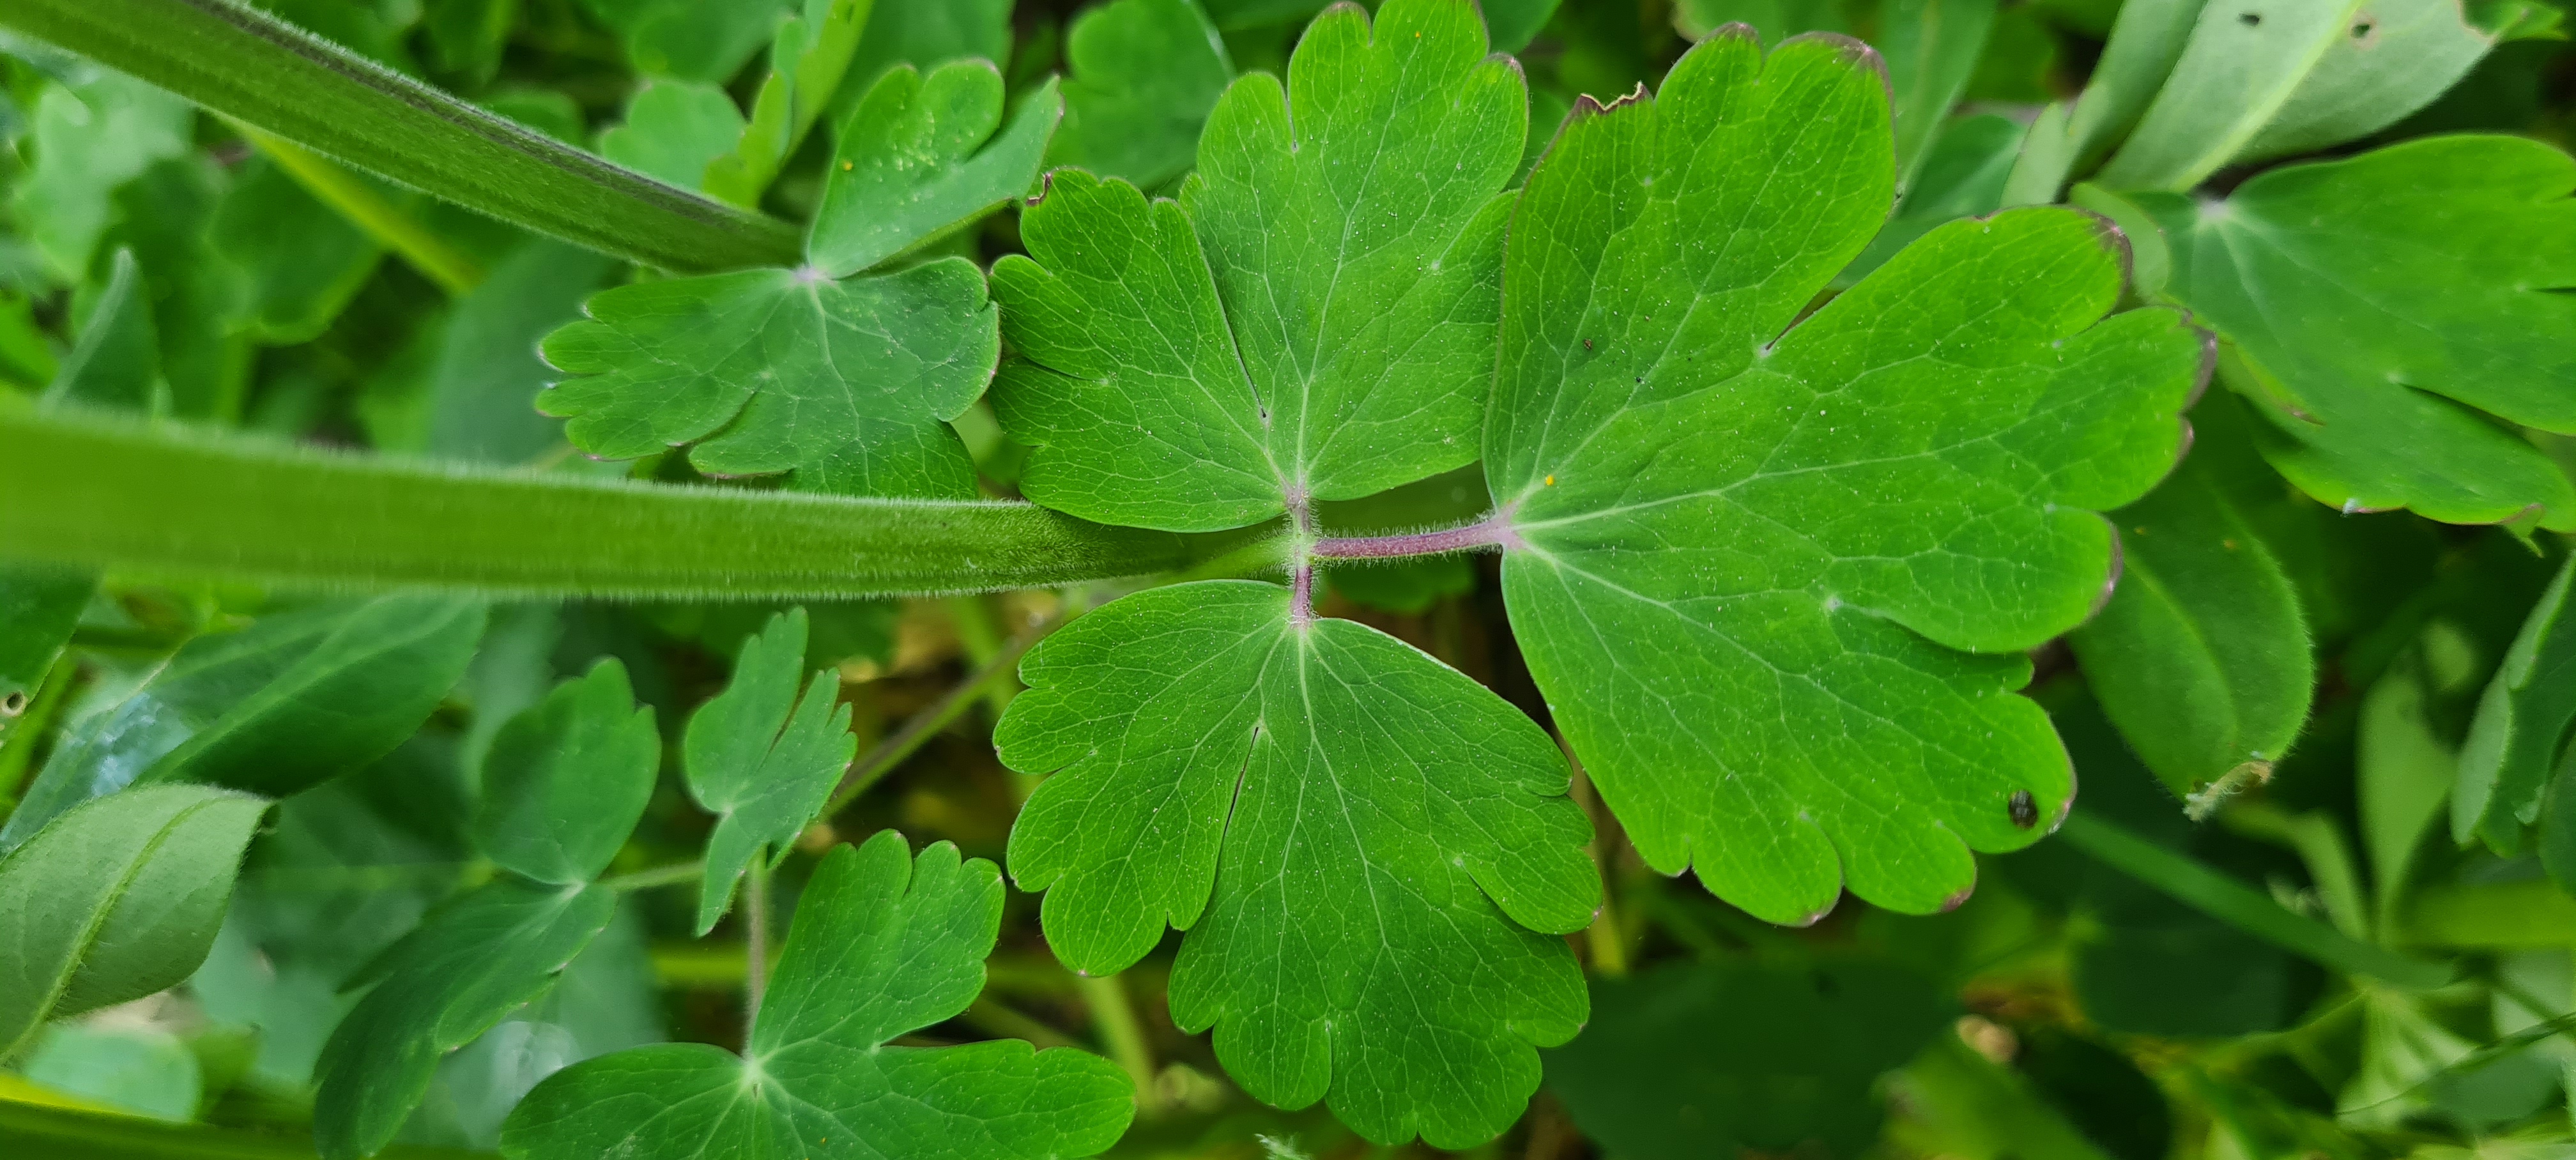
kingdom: Plantae
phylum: Tracheophyta
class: Magnoliopsida
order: Ranunculales
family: Ranunculaceae
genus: Aquilegia
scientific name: Aquilegia vulgaris
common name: Akeleje
